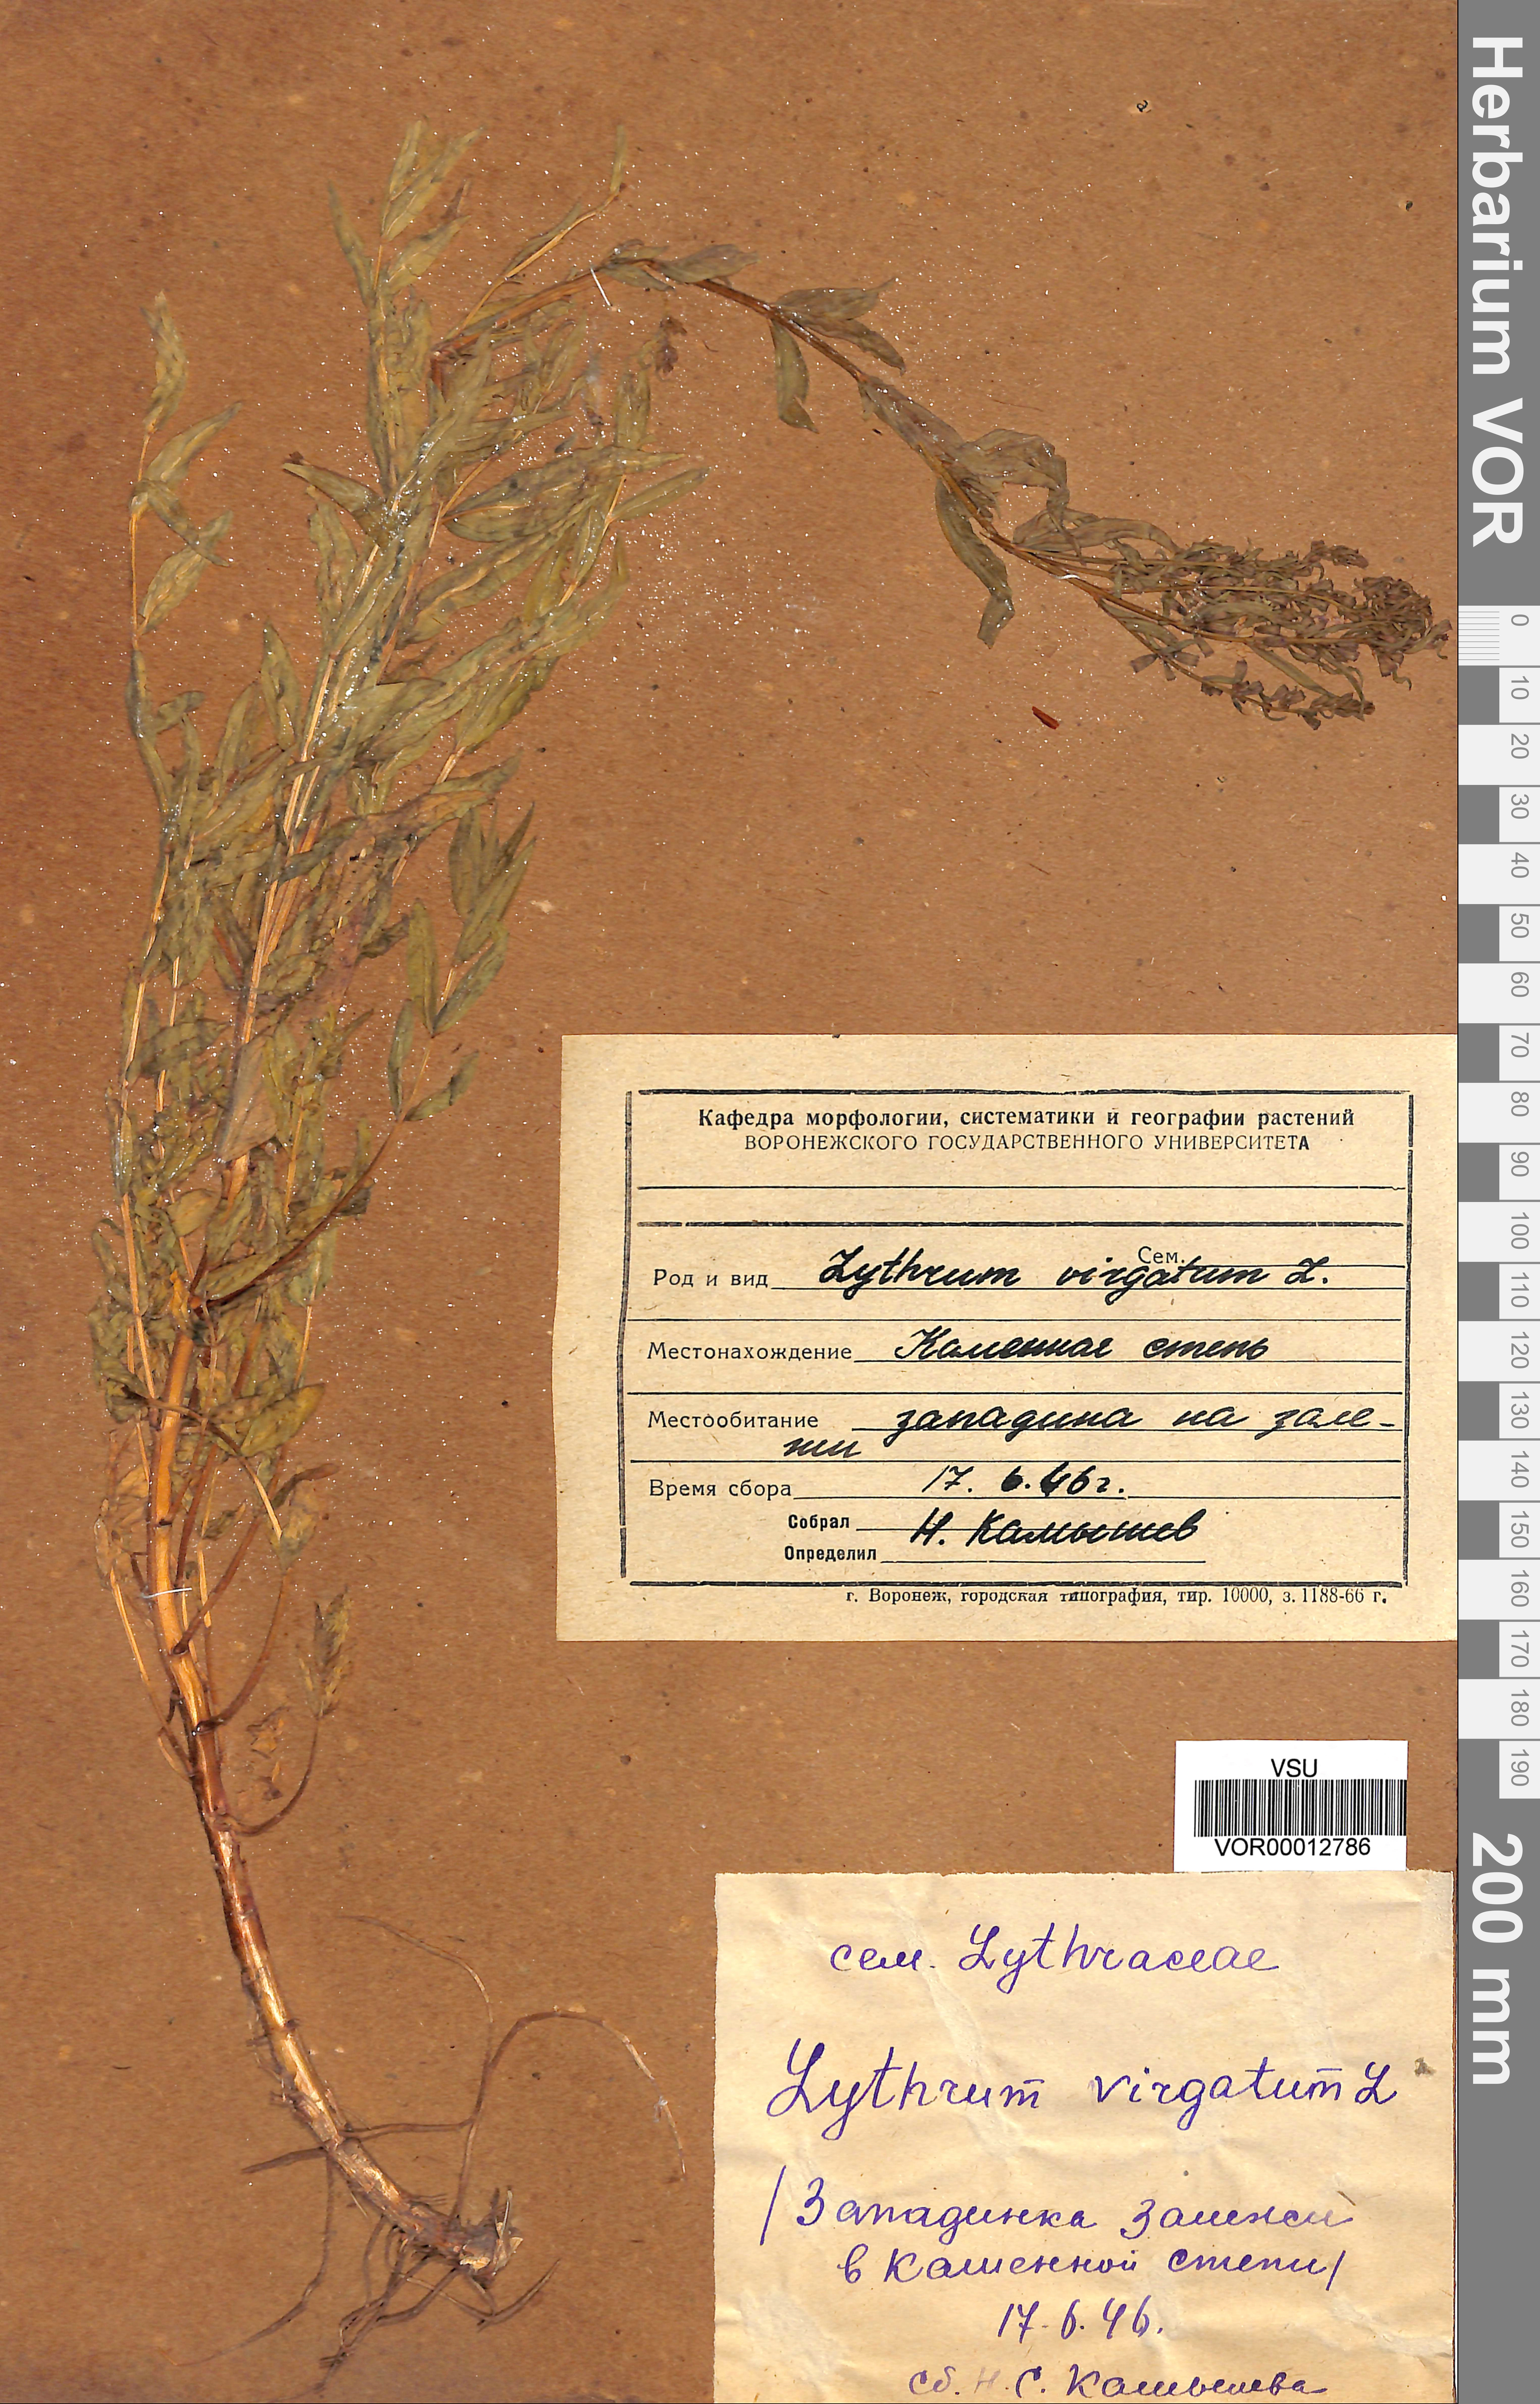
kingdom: Plantae
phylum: Tracheophyta
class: Magnoliopsida
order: Myrtales
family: Lythraceae
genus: Lythrum
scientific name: Lythrum virgatum
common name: European wand loosestrife
